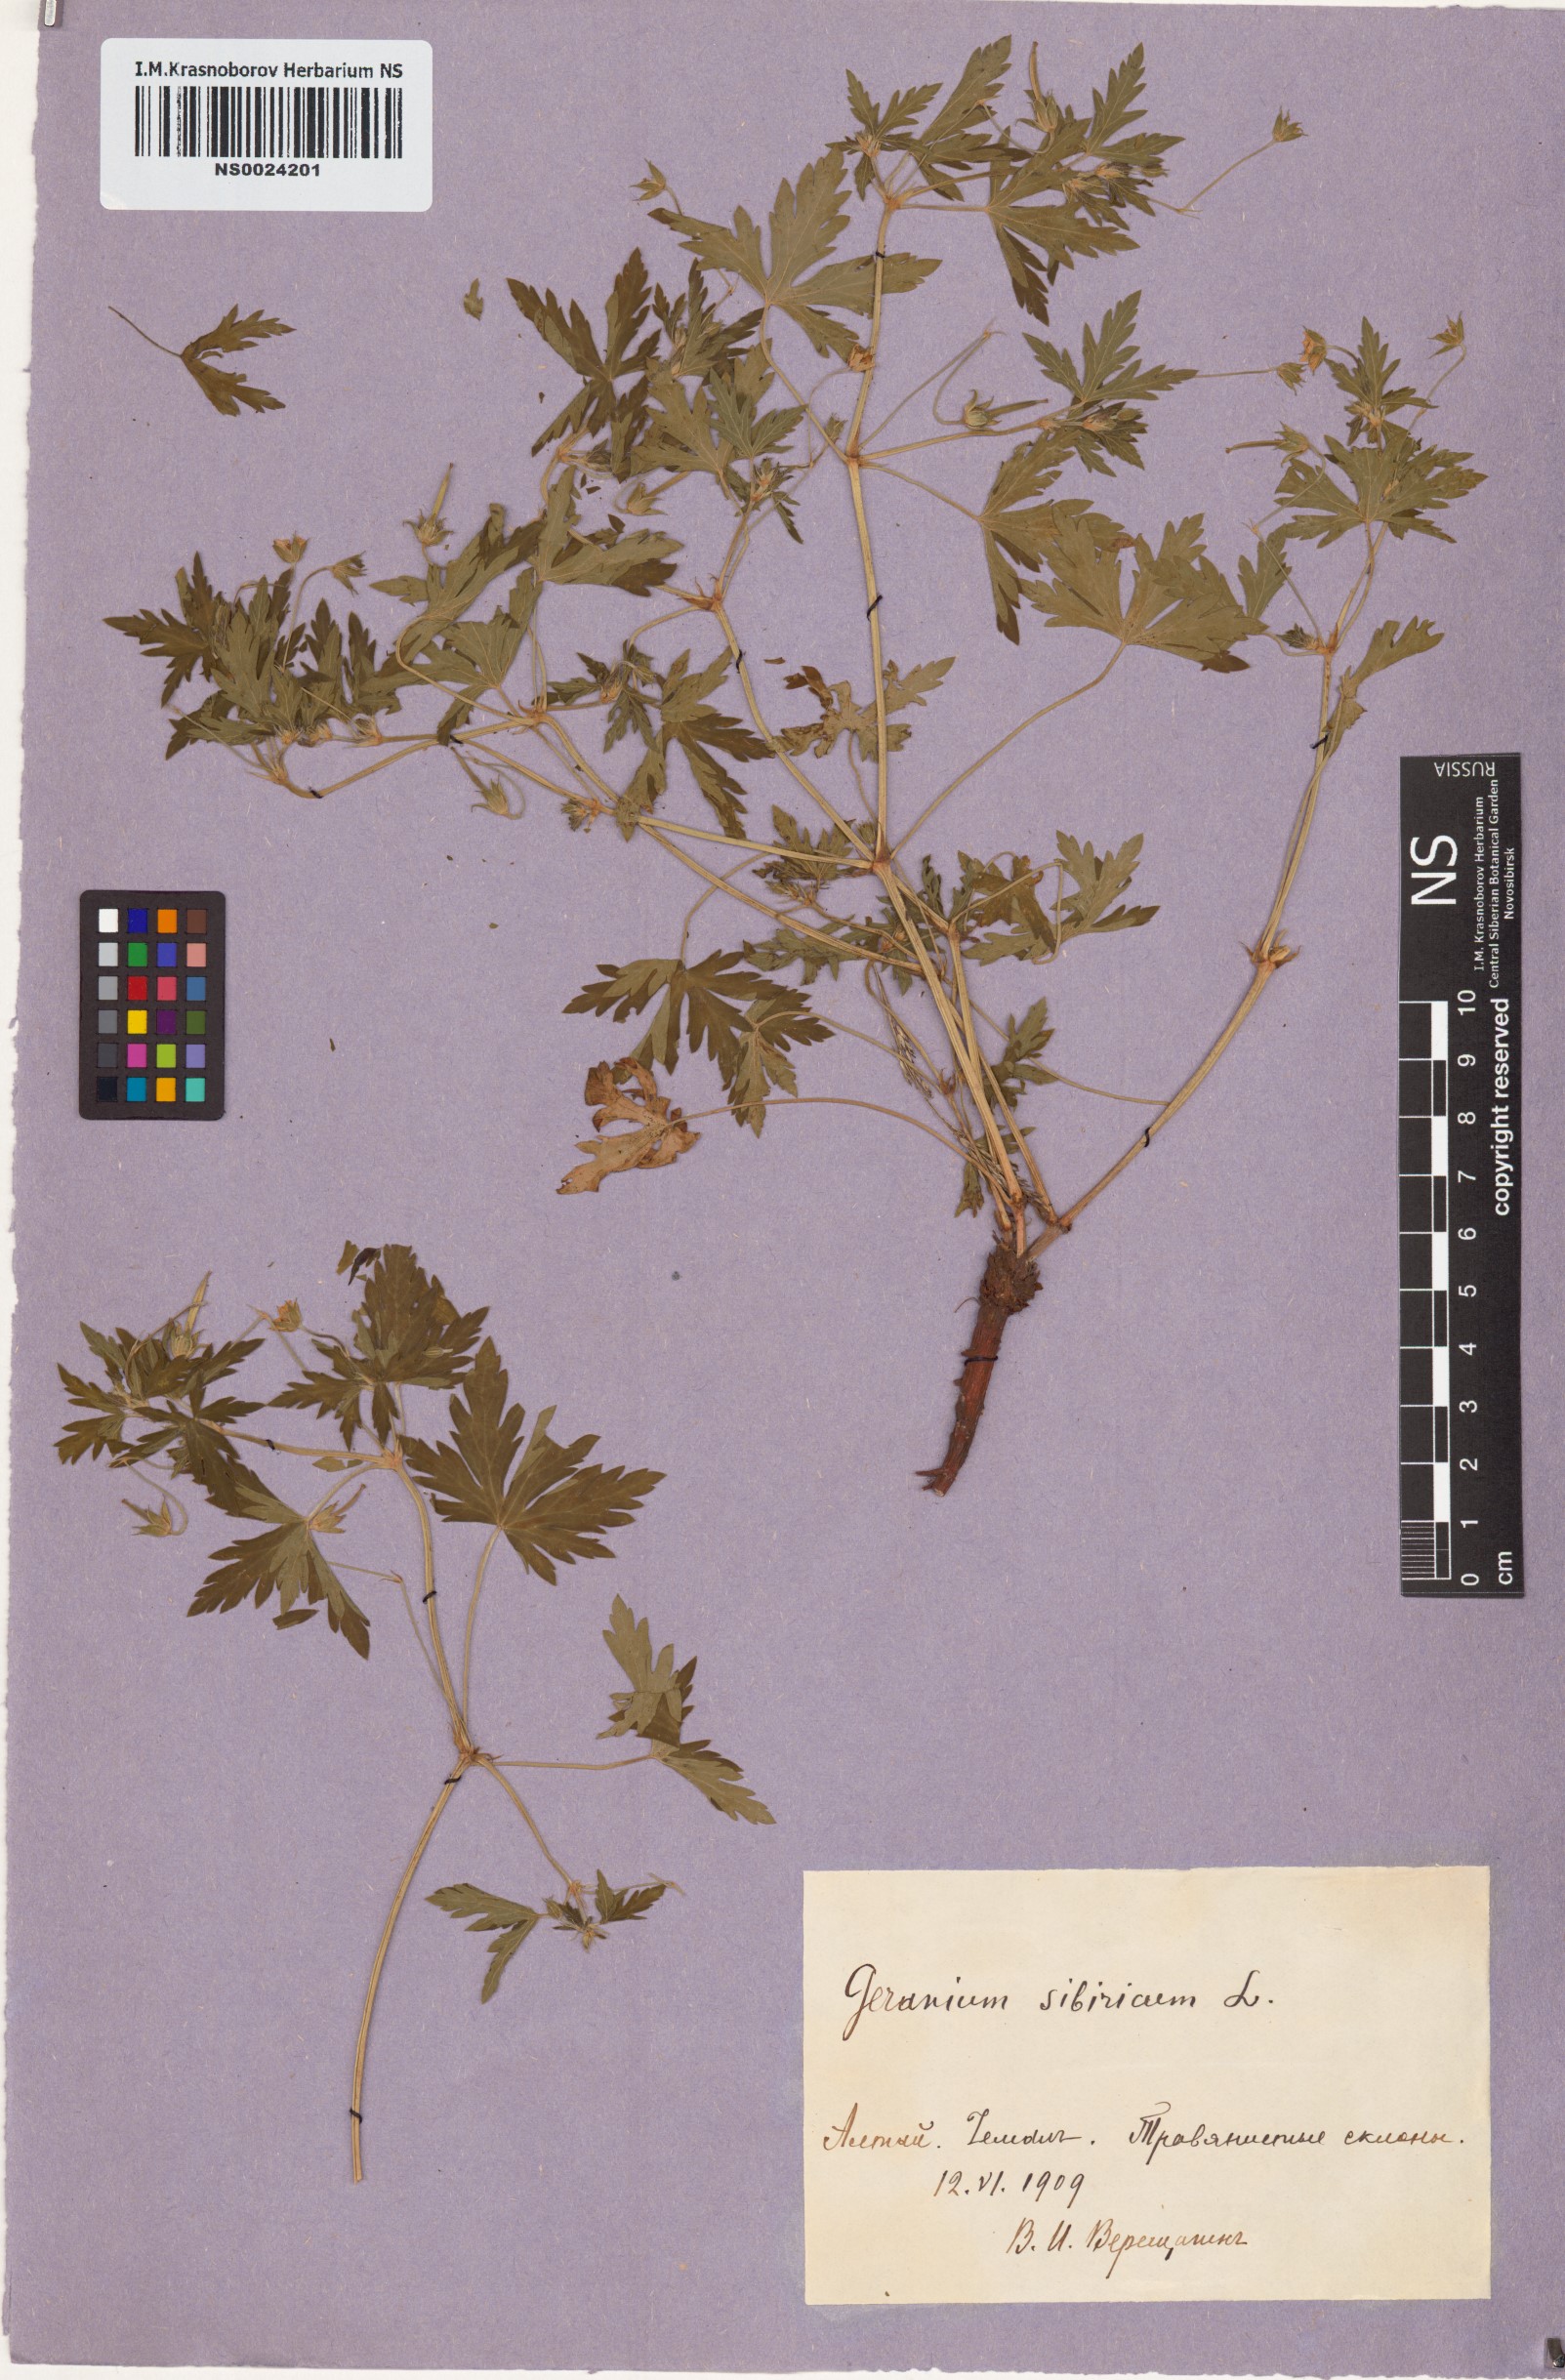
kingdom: Plantae
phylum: Tracheophyta
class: Magnoliopsida
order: Geraniales
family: Geraniaceae
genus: Geranium
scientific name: Geranium sibiricum
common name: Siberian crane's-bill
